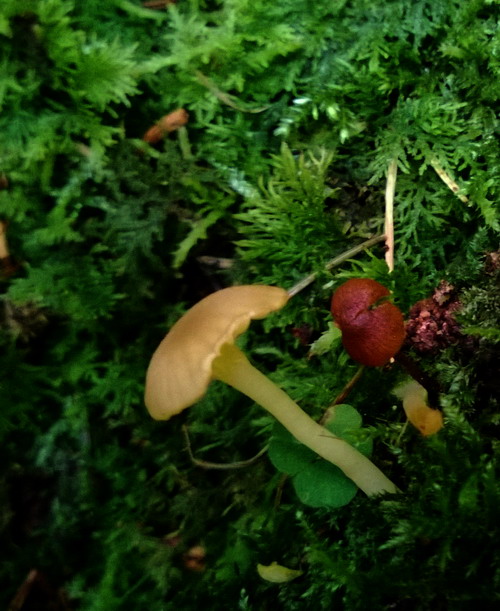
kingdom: Fungi
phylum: Basidiomycota
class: Agaricomycetes
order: Agaricales
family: Hygrophoraceae
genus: Chrysomphalina
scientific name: Chrysomphalina grossula
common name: stød-gyldenblad
